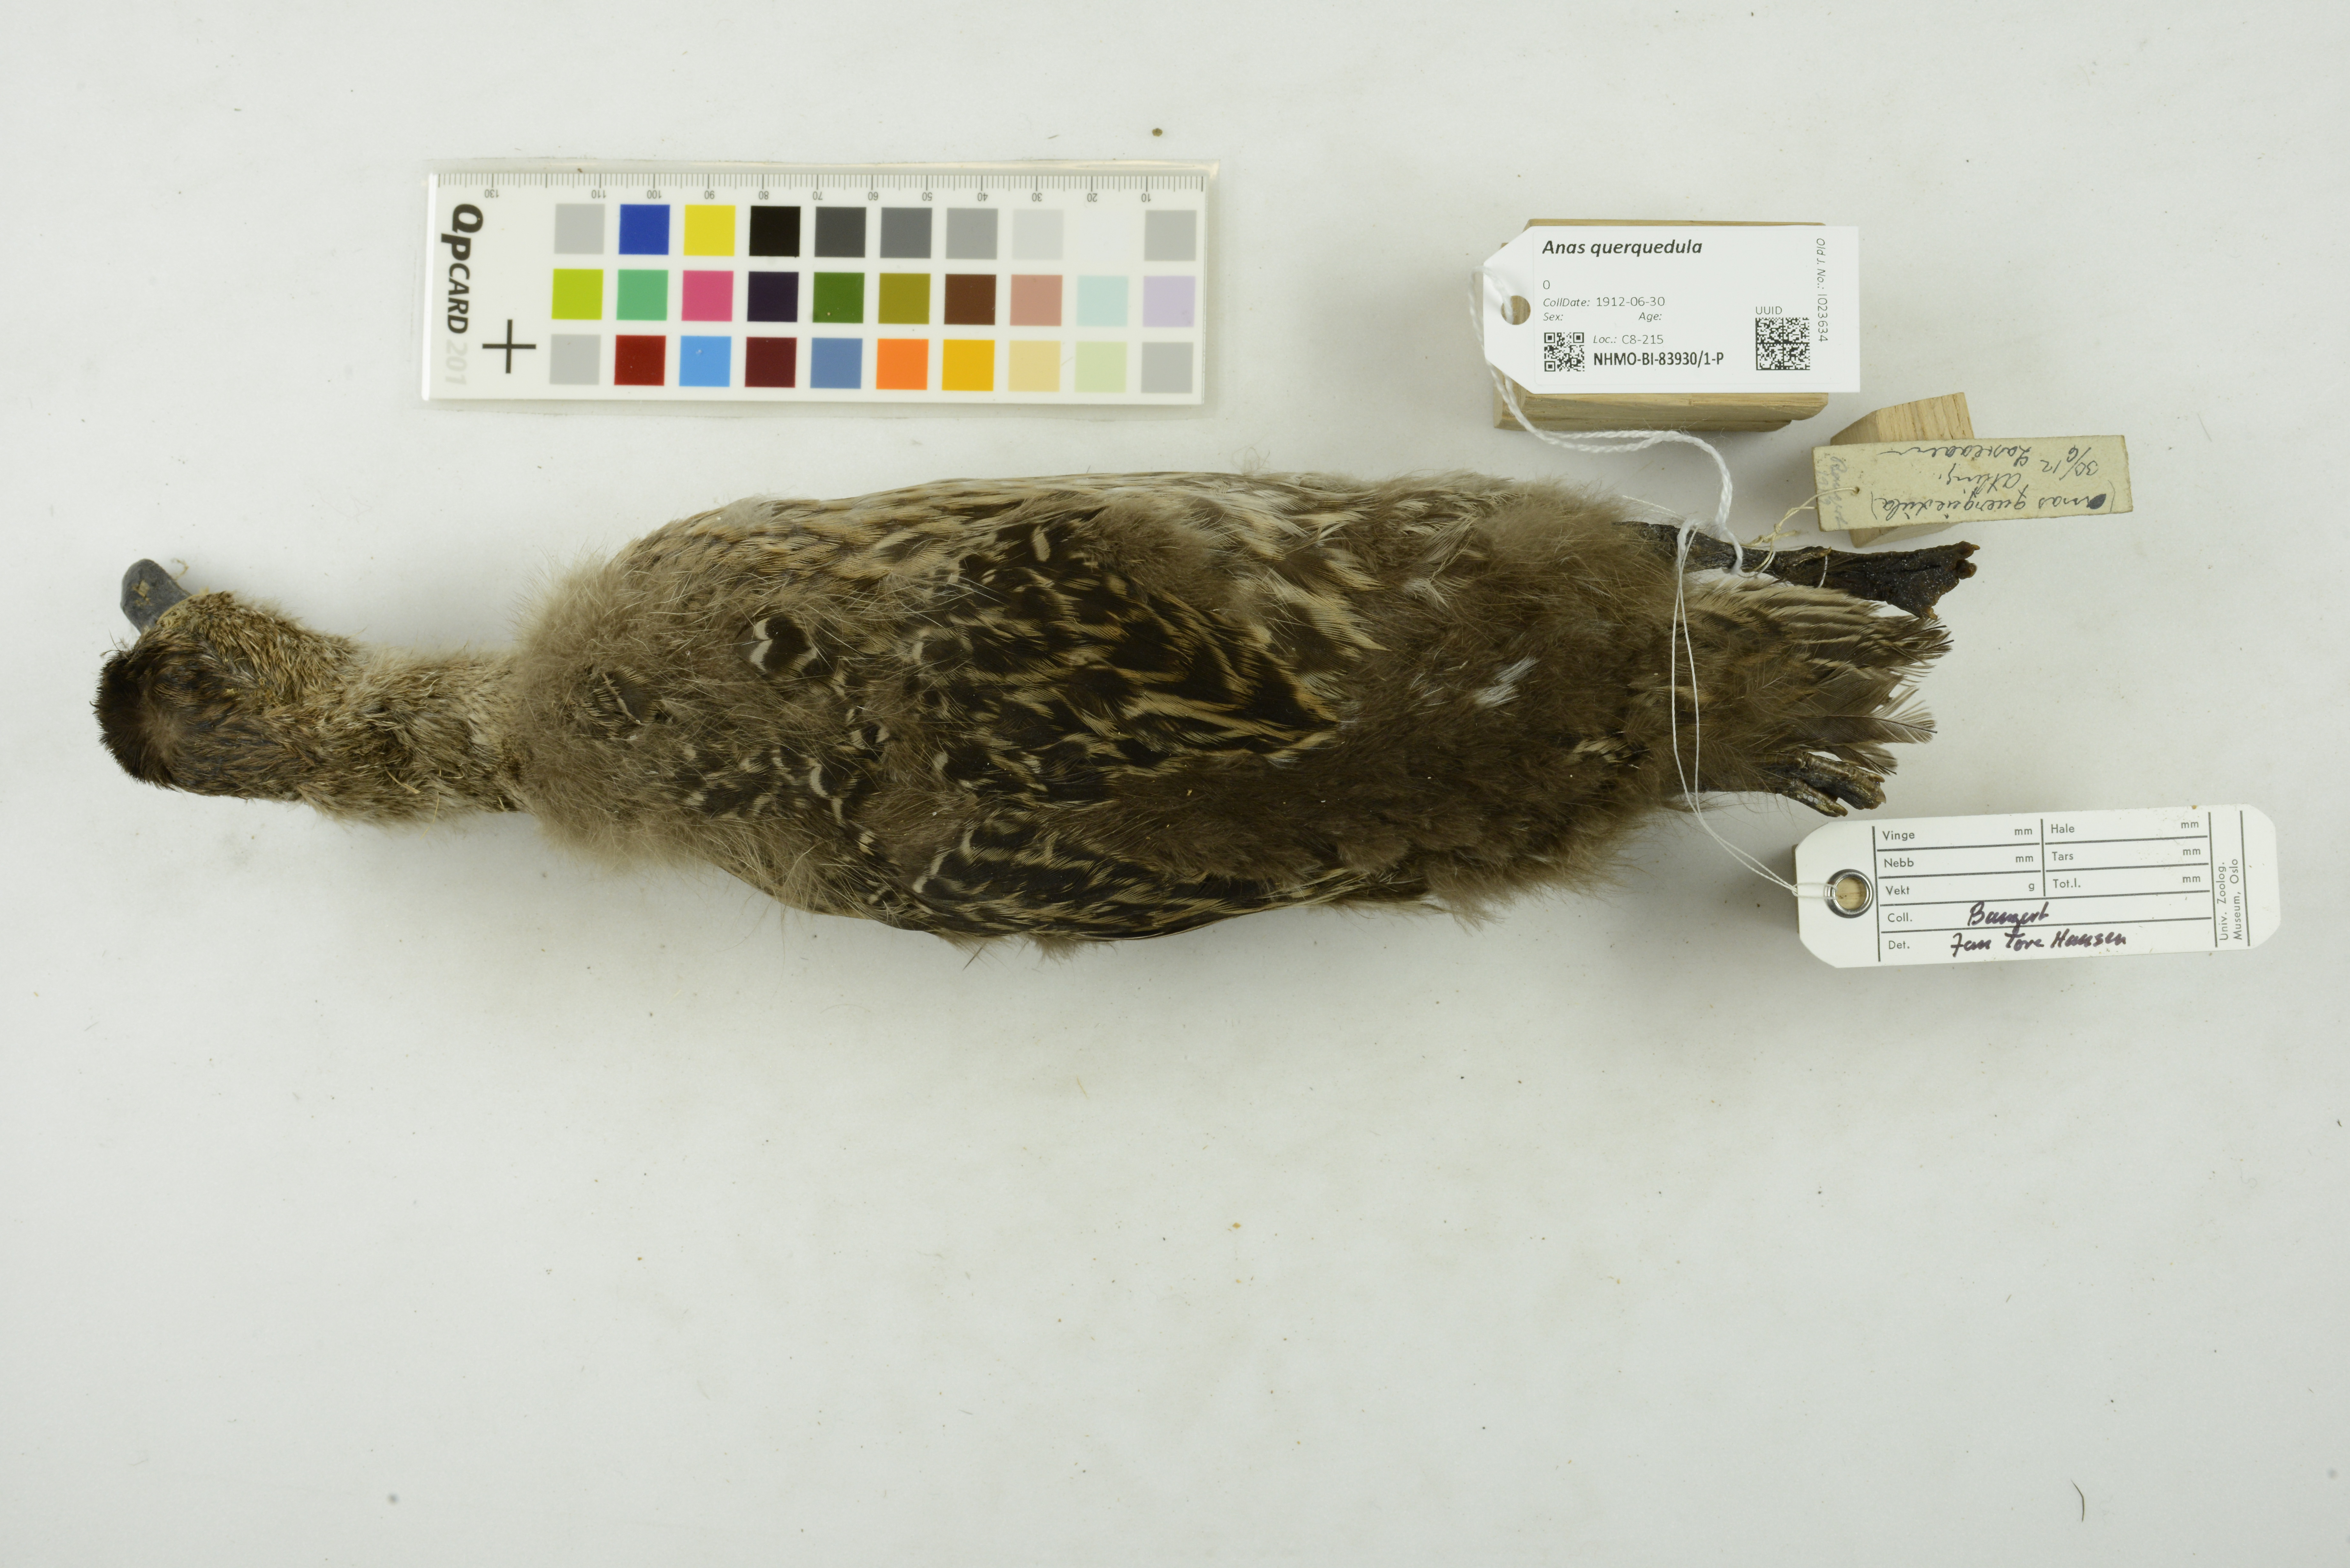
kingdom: Animalia
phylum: Chordata
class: Aves
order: Anseriformes
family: Anatidae
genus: Spatula
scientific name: Spatula querquedula
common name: Garganey
